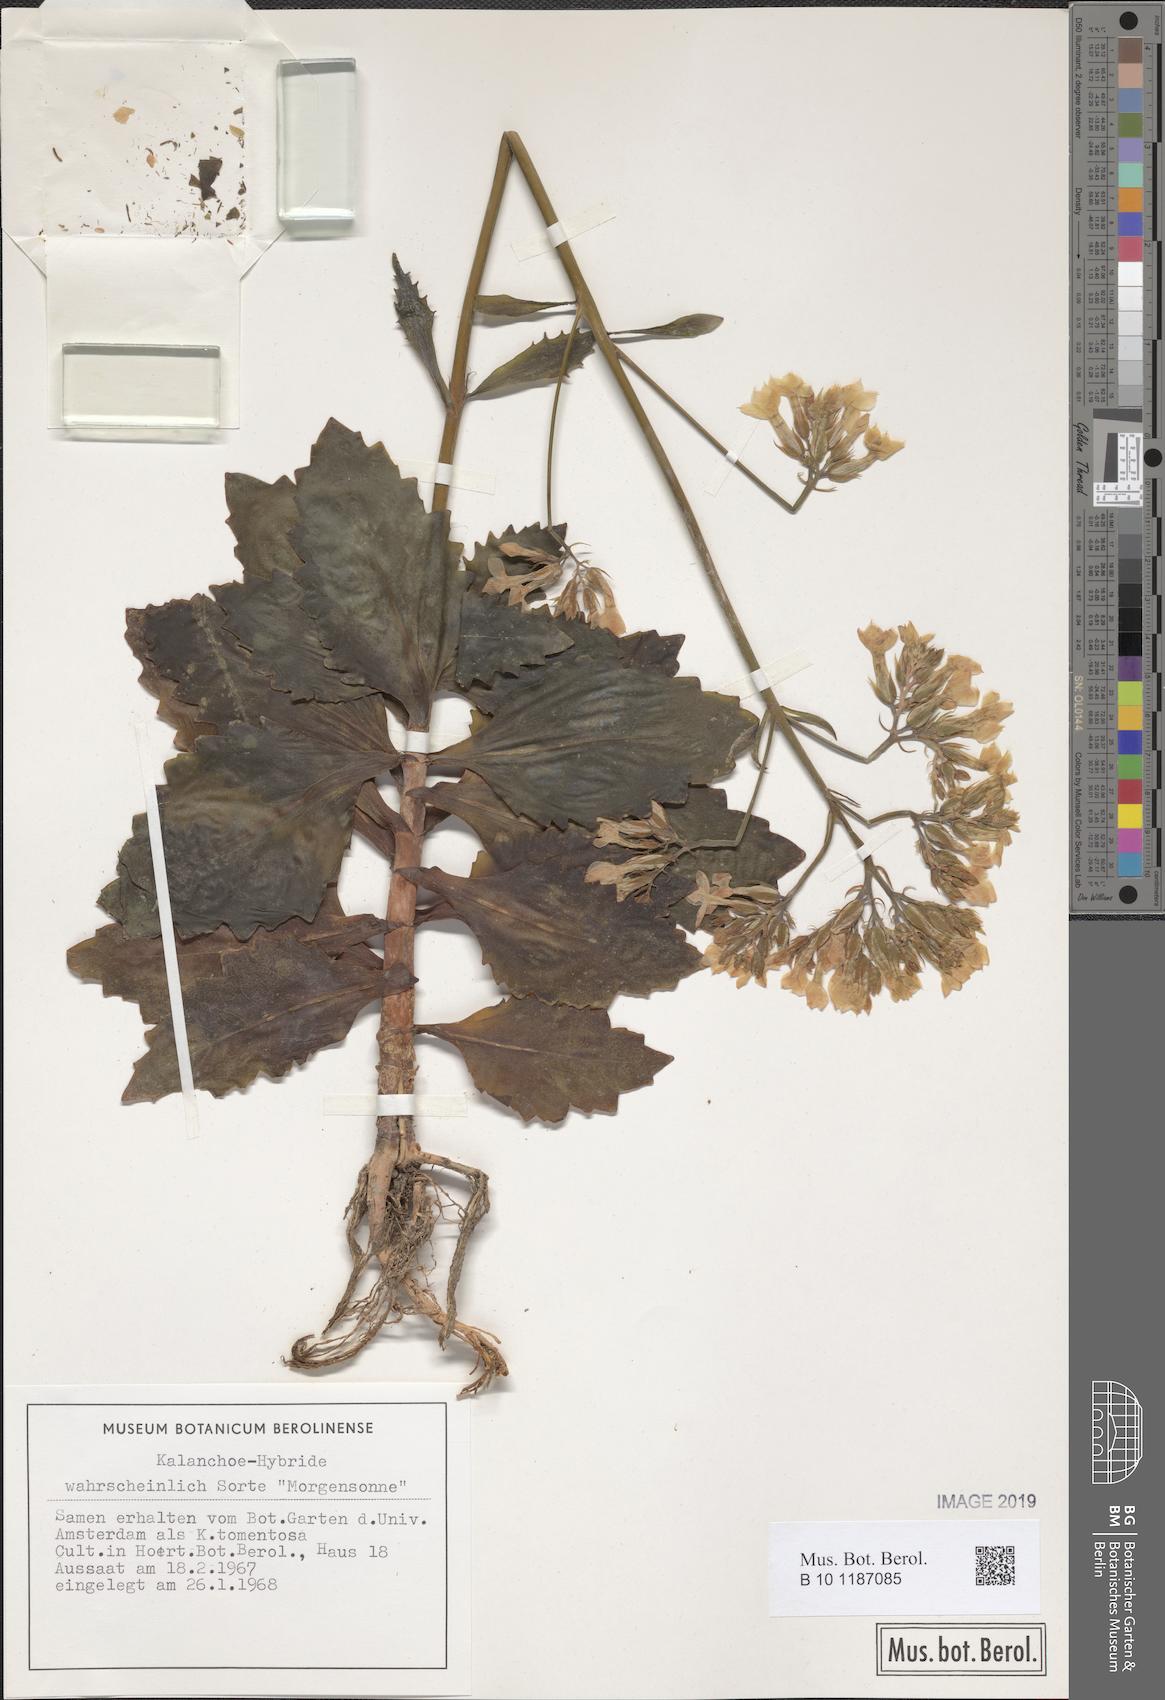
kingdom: Plantae
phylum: Tracheophyta
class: Magnoliopsida
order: Saxifragales
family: Crassulaceae
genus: Kalanchoe
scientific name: Kalanchoe
